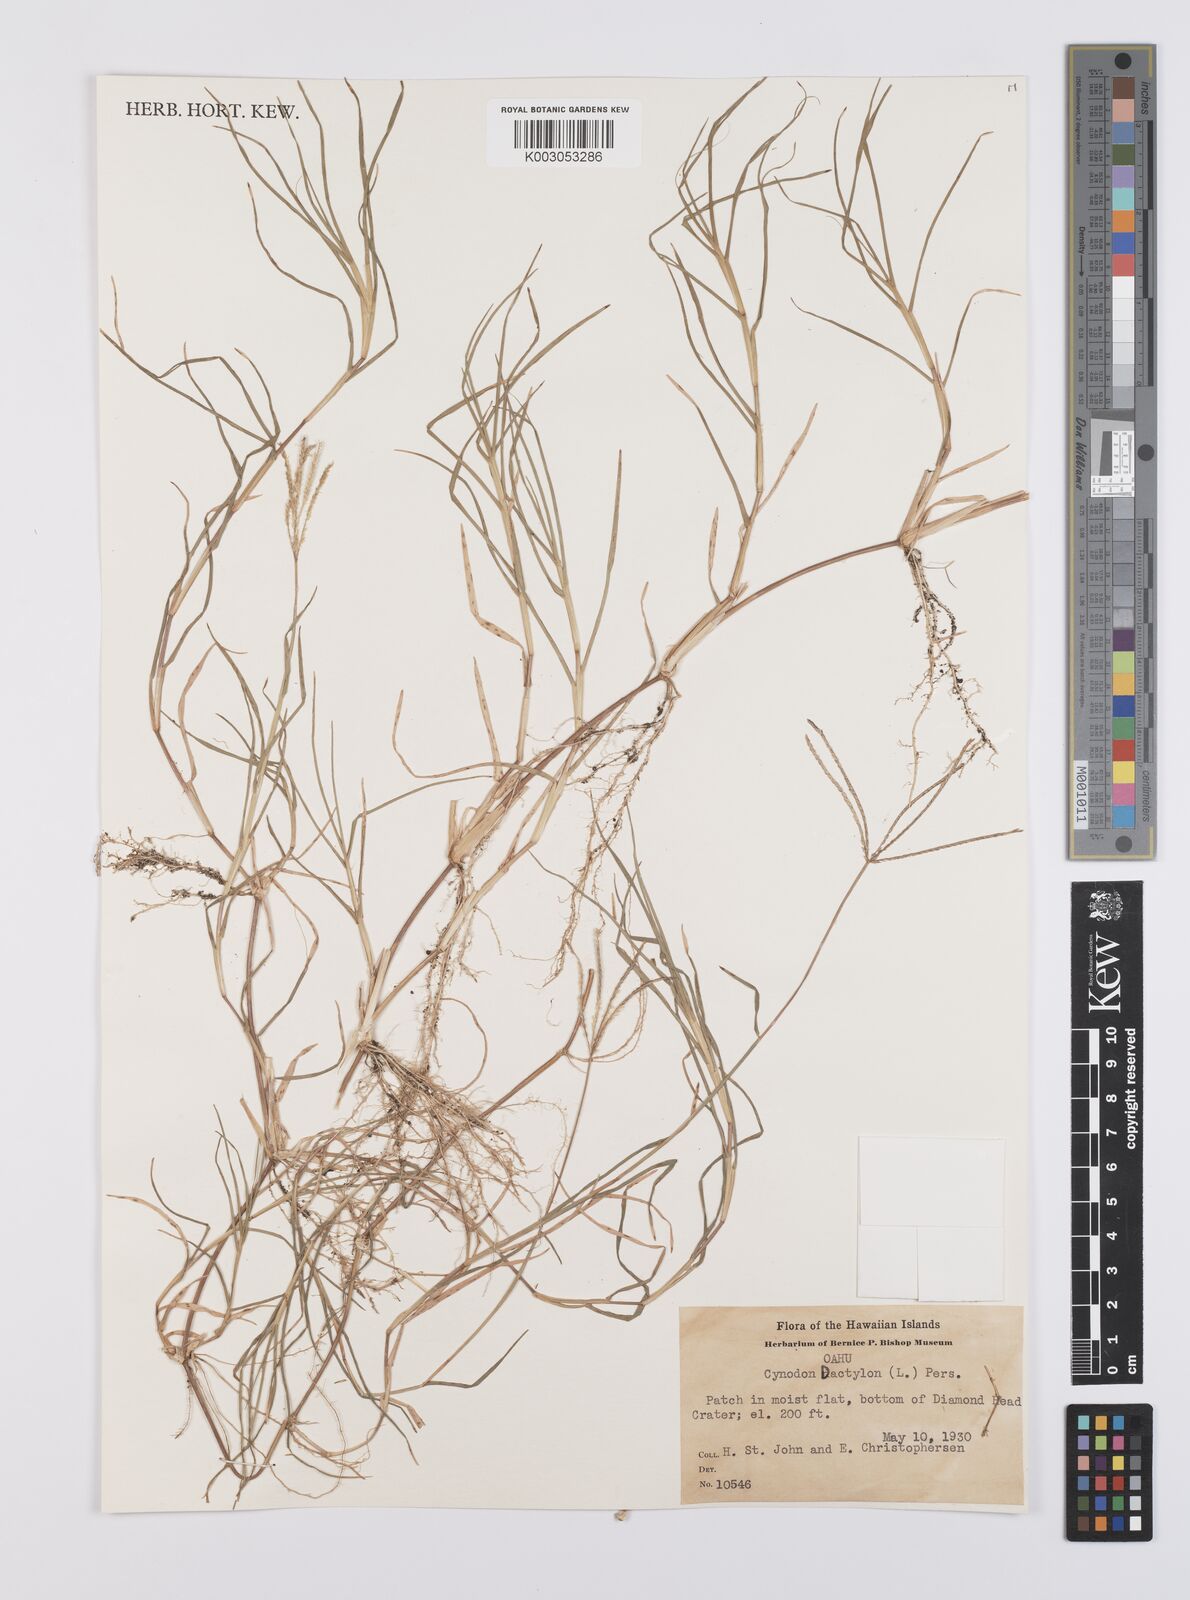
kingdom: Plantae
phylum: Tracheophyta
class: Liliopsida
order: Poales
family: Poaceae
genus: Cynodon
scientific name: Cynodon dactylon
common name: Bermuda grass
